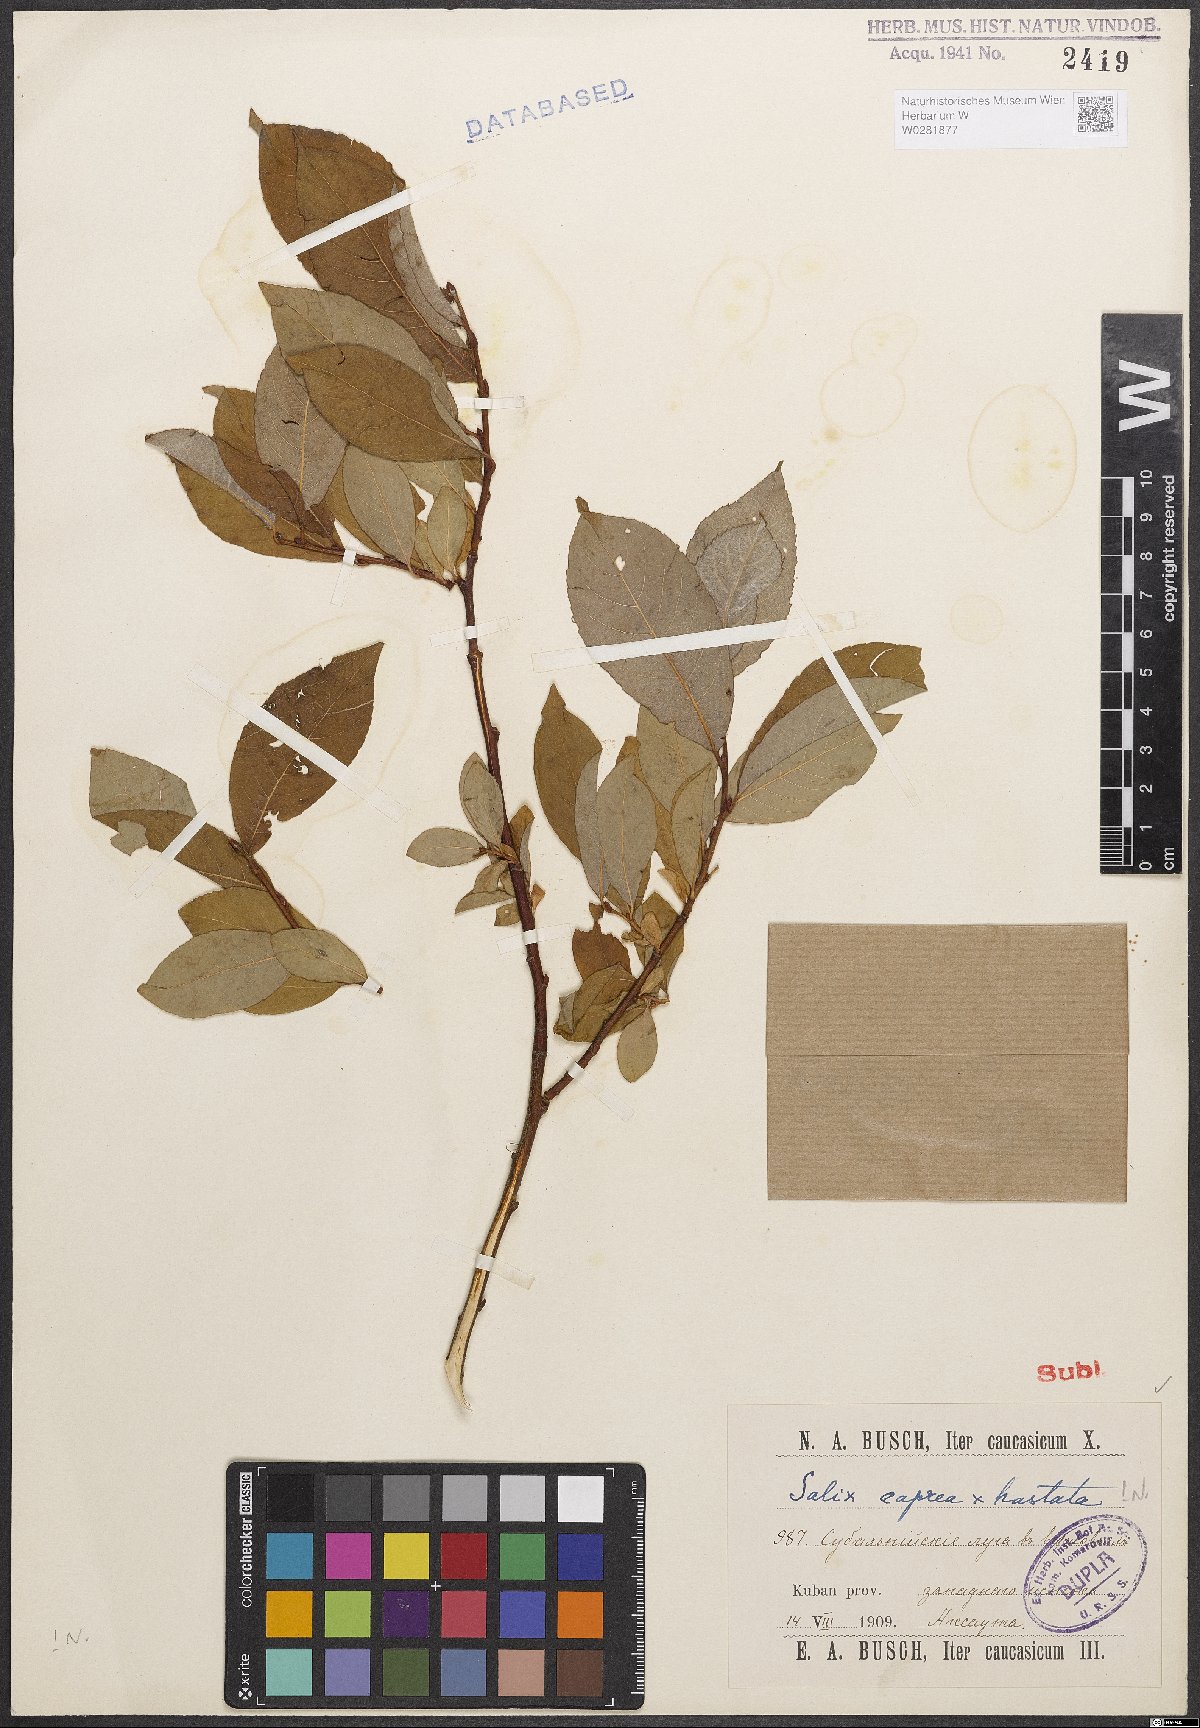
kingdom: Plantae
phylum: Tracheophyta
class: Magnoliopsida
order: Malpighiales
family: Salicaceae
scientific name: Salicaceae
